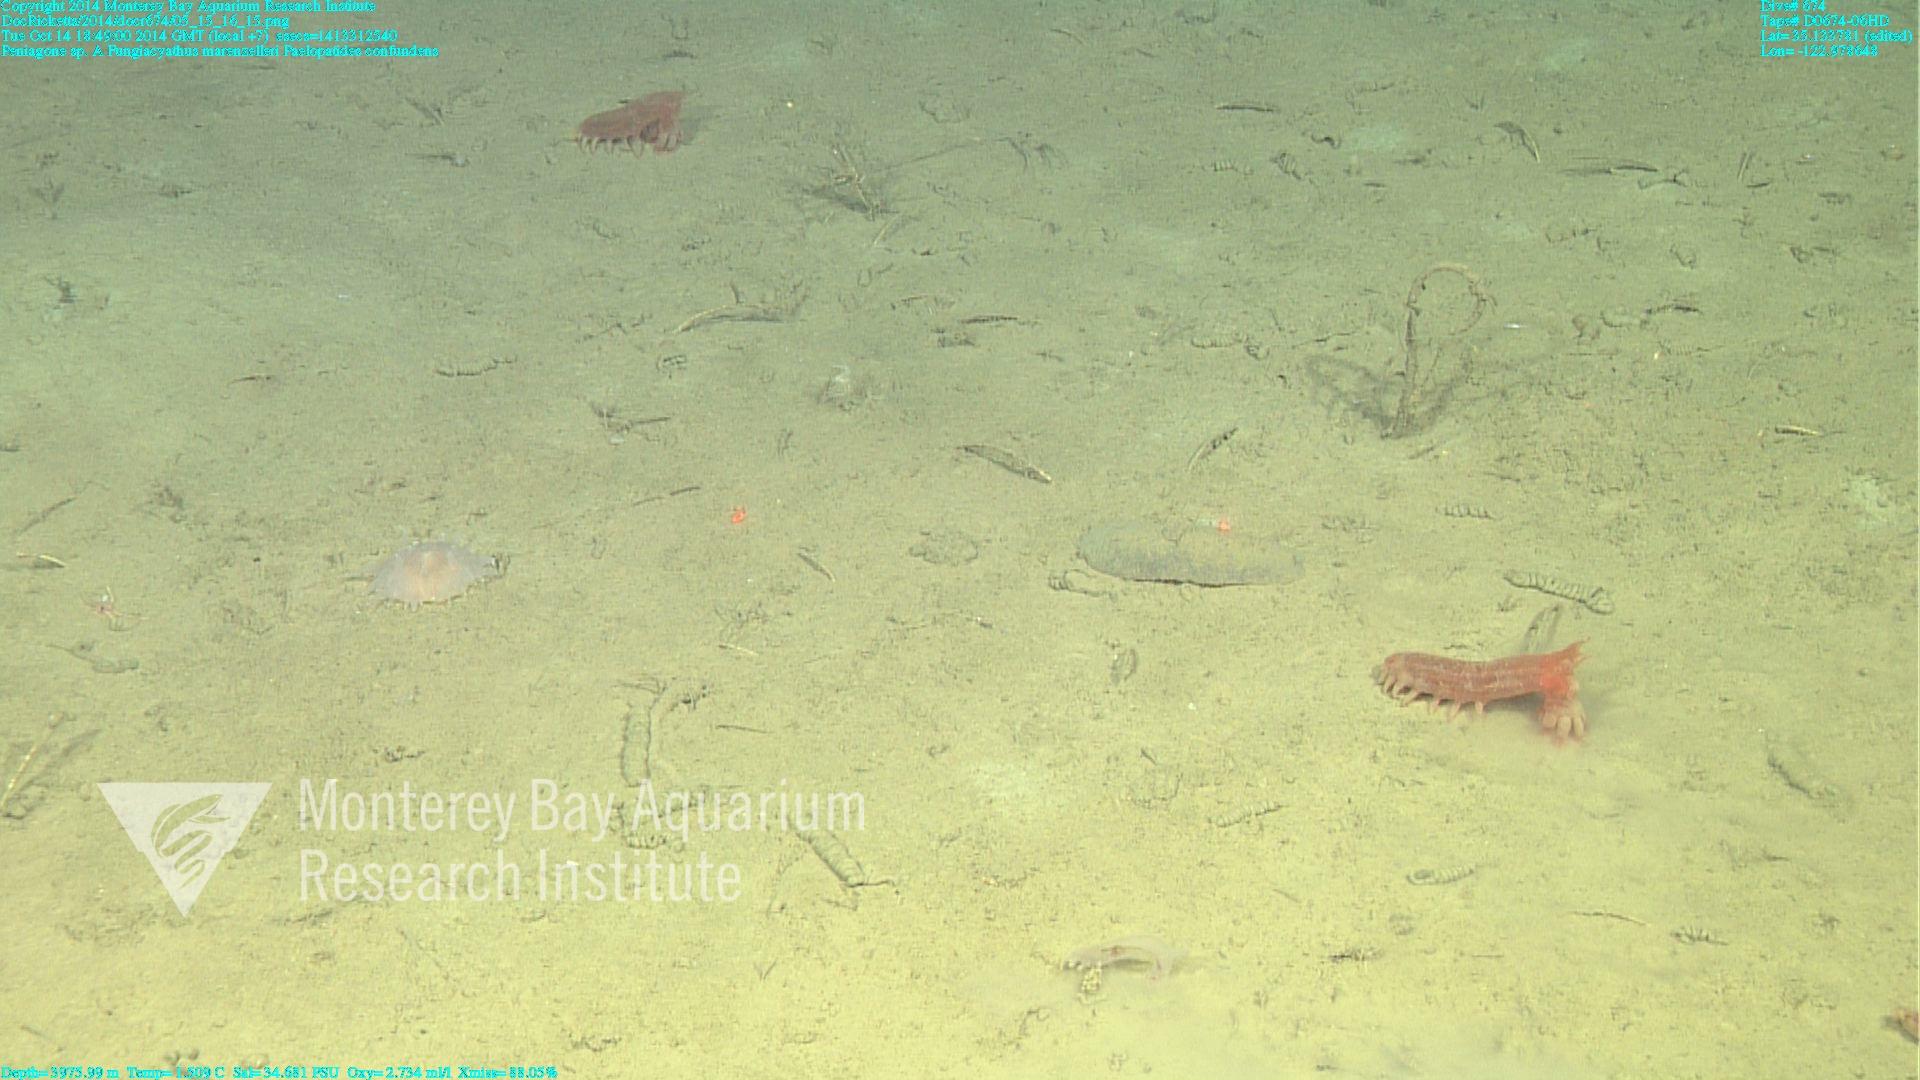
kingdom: Animalia
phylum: Cnidaria
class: Anthozoa
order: Scleractinia
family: Fungiacyathidae
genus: Fungiacyathus
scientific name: Fungiacyathus marenzelleri
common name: Marenzeller's stony coral
